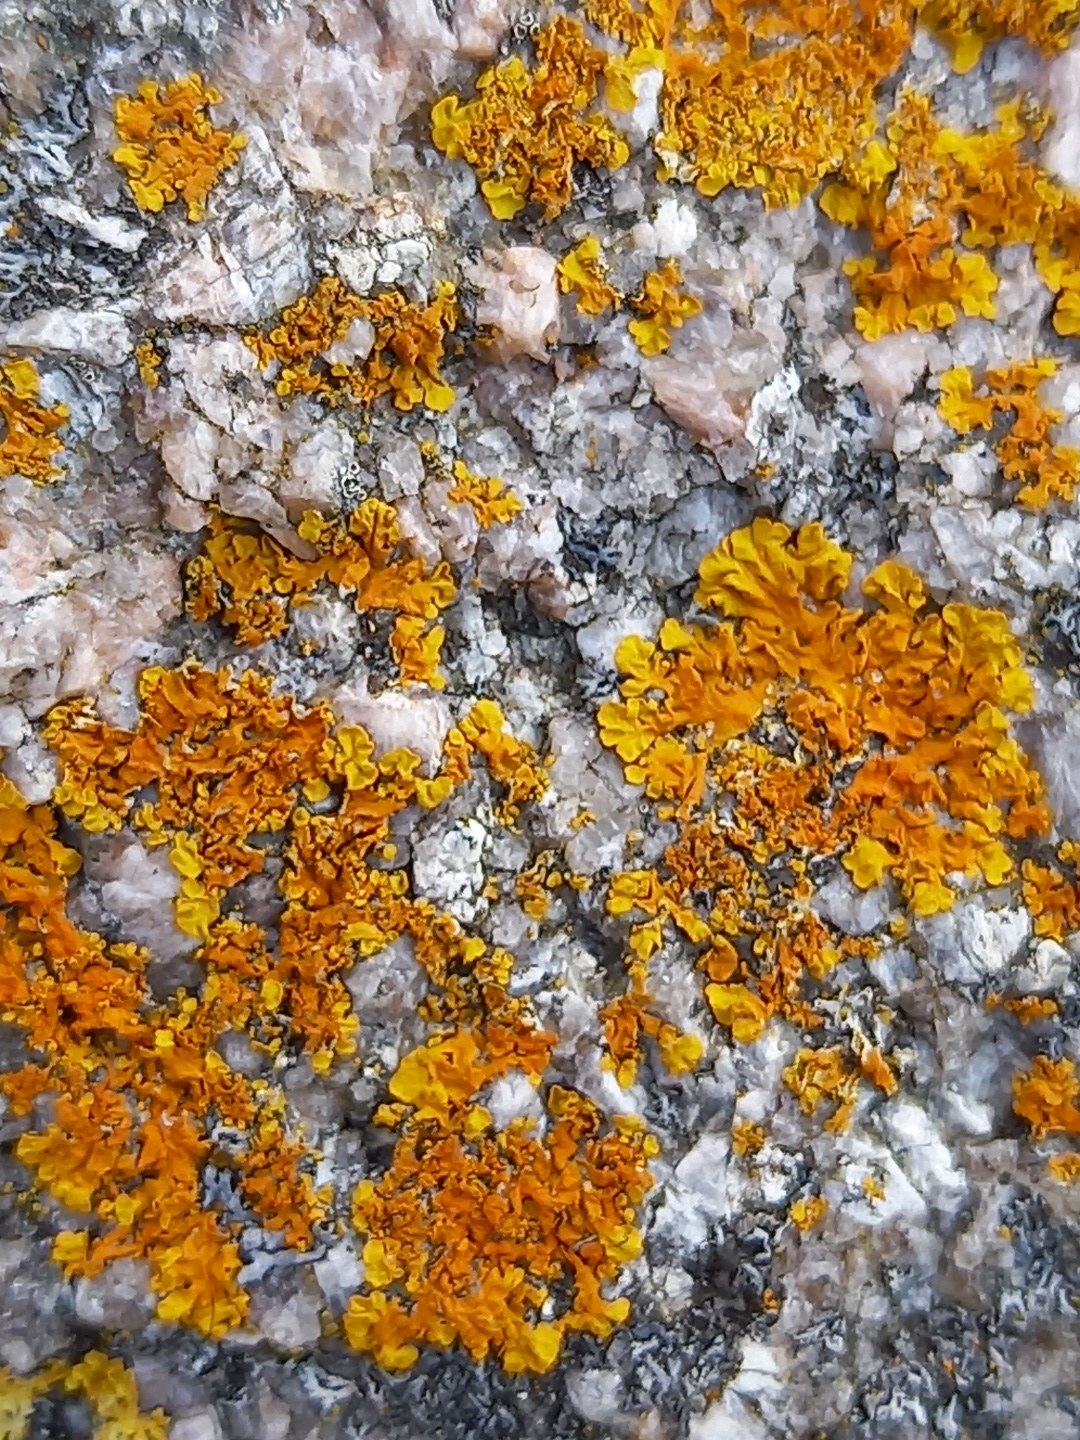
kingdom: Fungi
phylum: Ascomycota
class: Lecanoromycetes
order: Teloschistales
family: Teloschistaceae
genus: Xanthoria
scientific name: Xanthoria aureola
